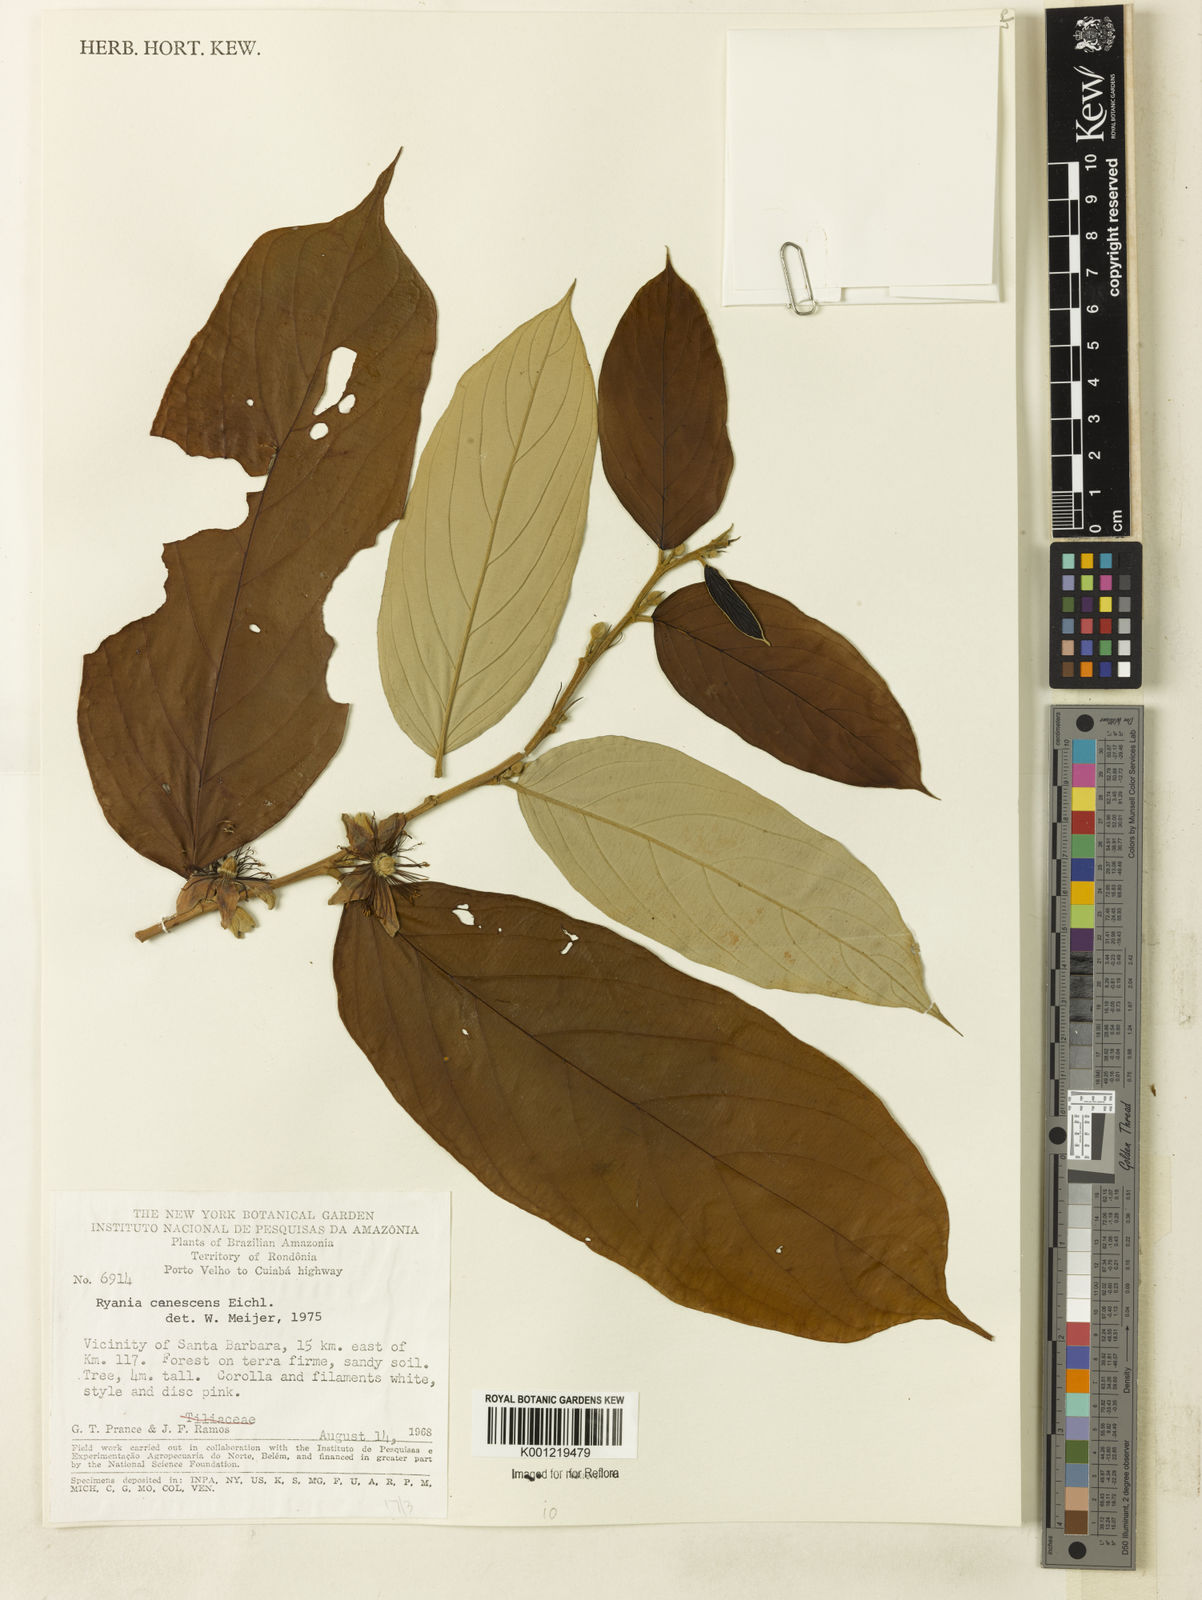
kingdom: Plantae
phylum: Tracheophyta
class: Magnoliopsida
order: Malpighiales
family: Salicaceae
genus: Ryania
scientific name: Ryania canescens
